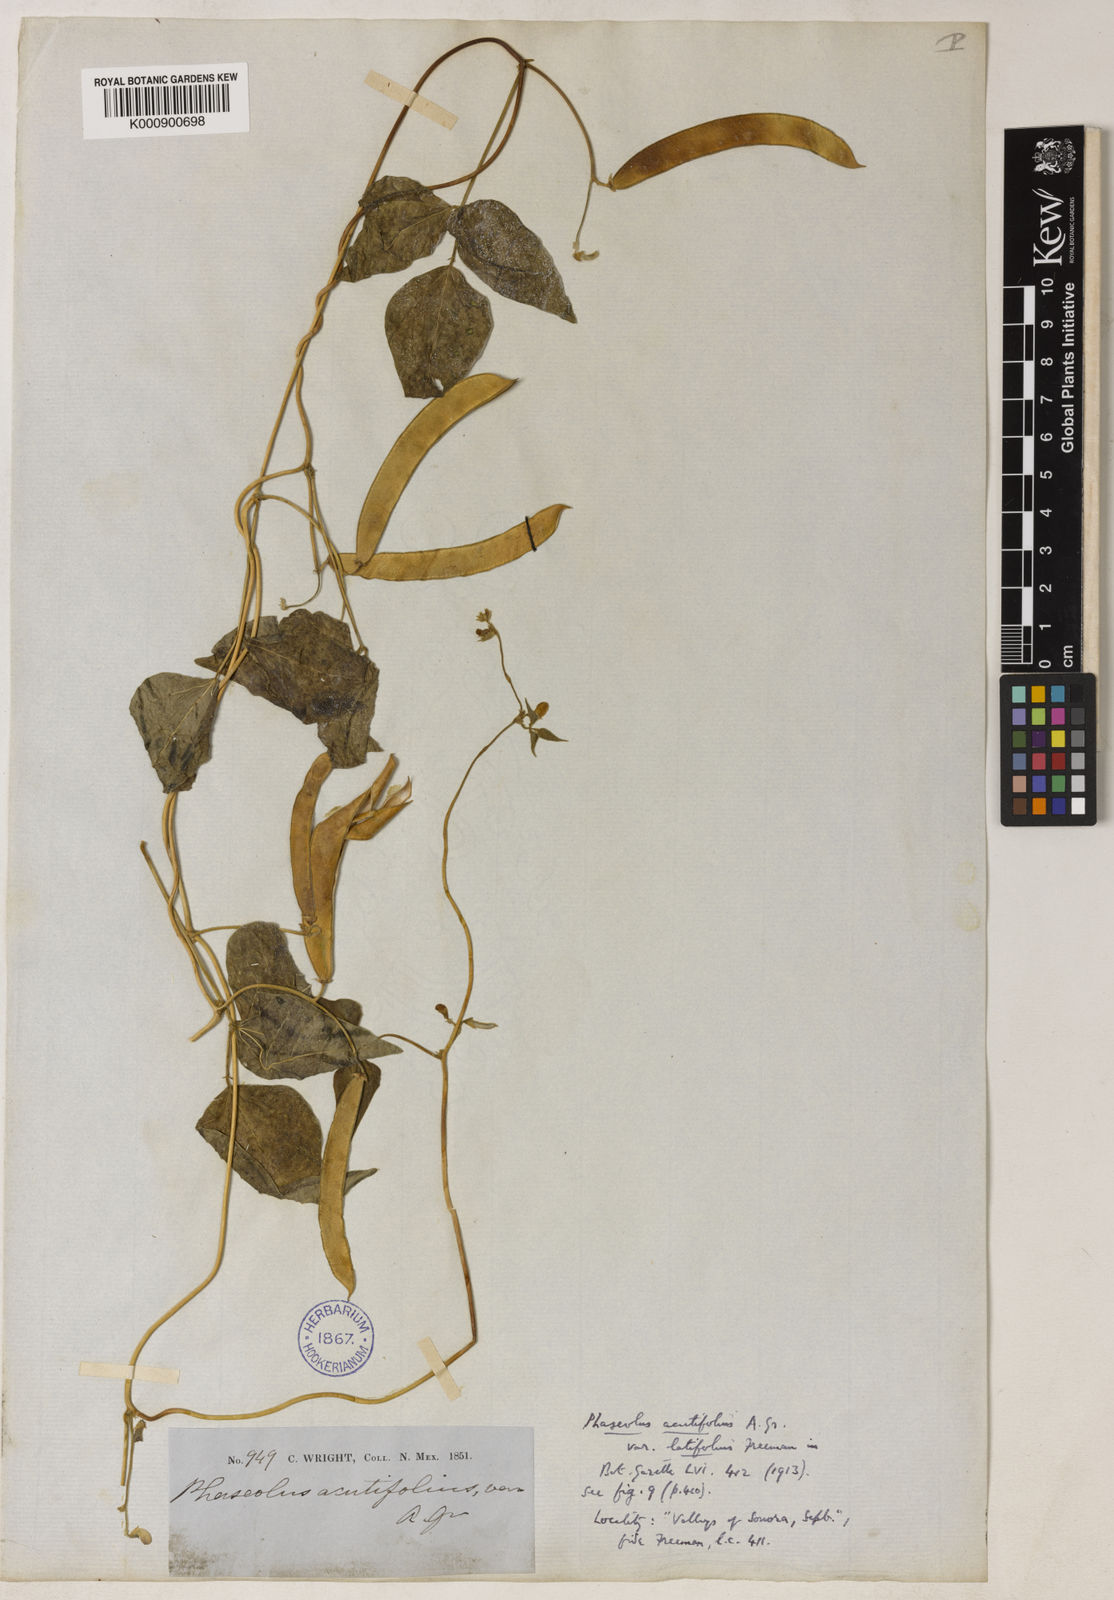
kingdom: Plantae
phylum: Tracheophyta
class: Magnoliopsida
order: Fabales
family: Fabaceae
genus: Phaseolus
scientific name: Phaseolus acutifolius
